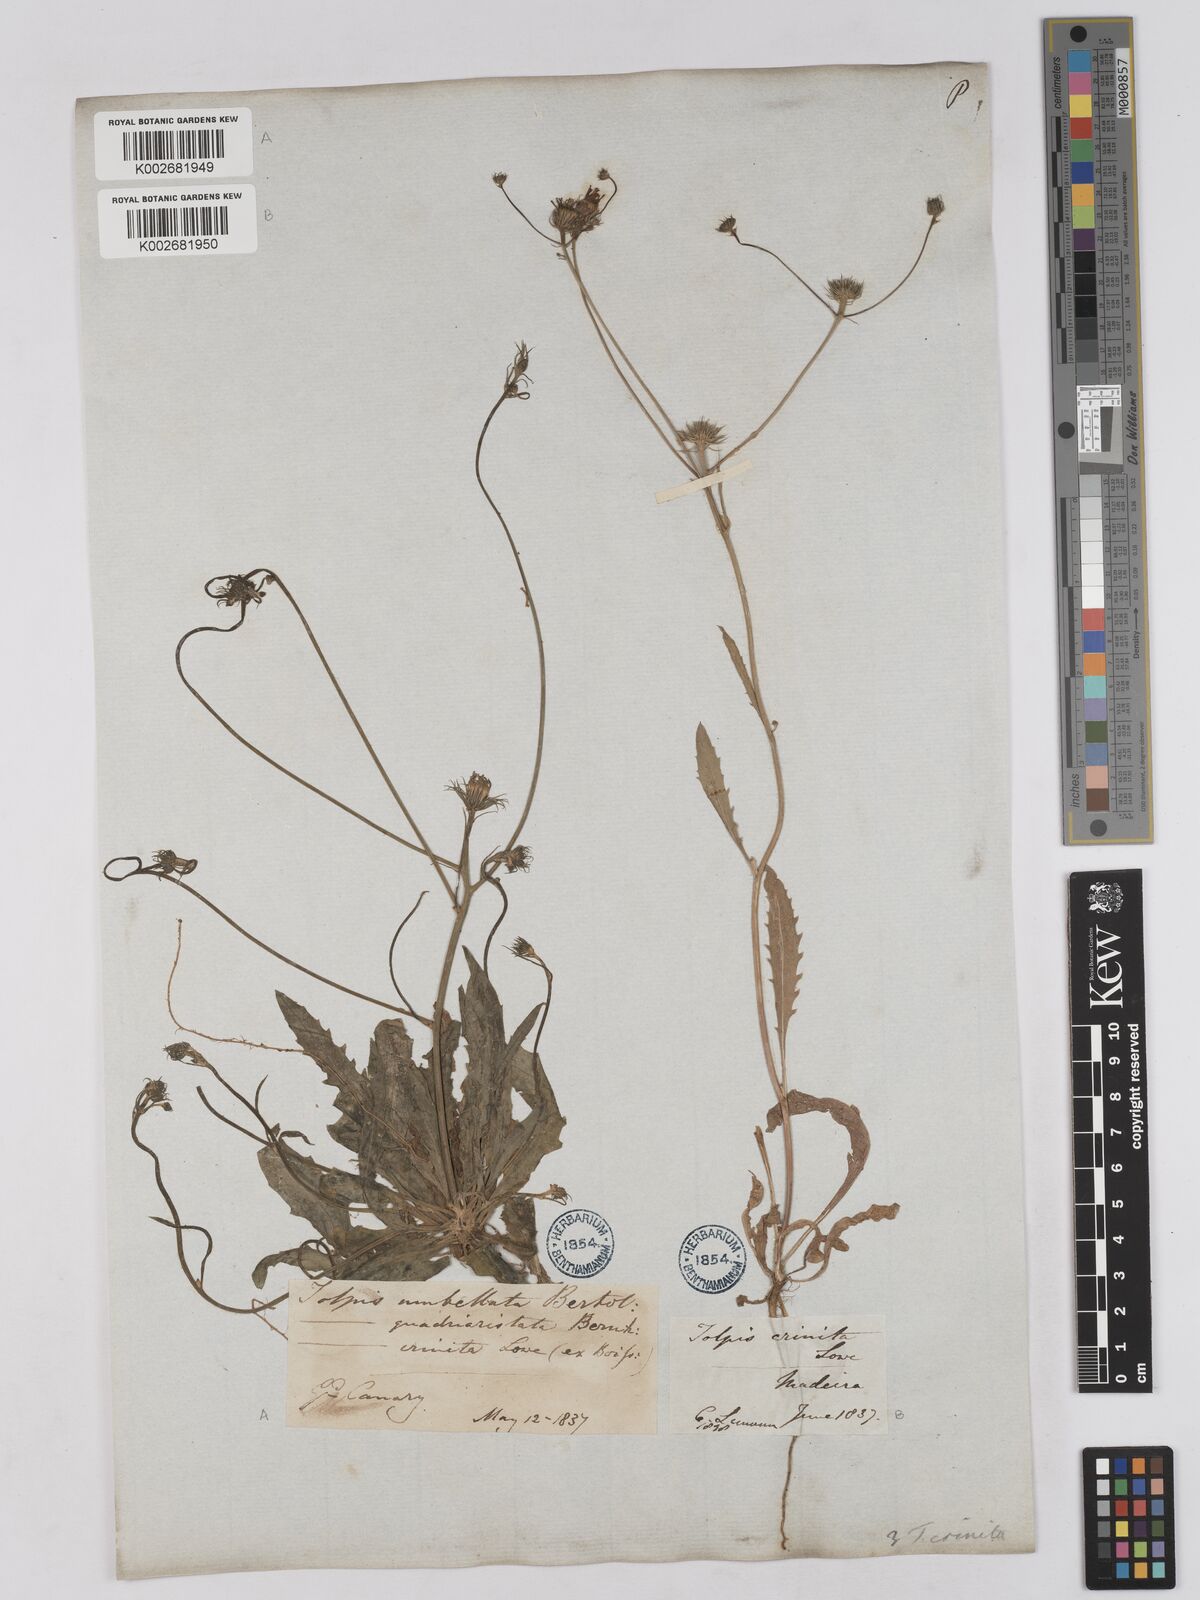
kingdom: Plantae
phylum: Tracheophyta
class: Magnoliopsida
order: Asterales
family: Asteraceae
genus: Tolpis
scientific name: Tolpis umbellata
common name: Yellow hawkweed
